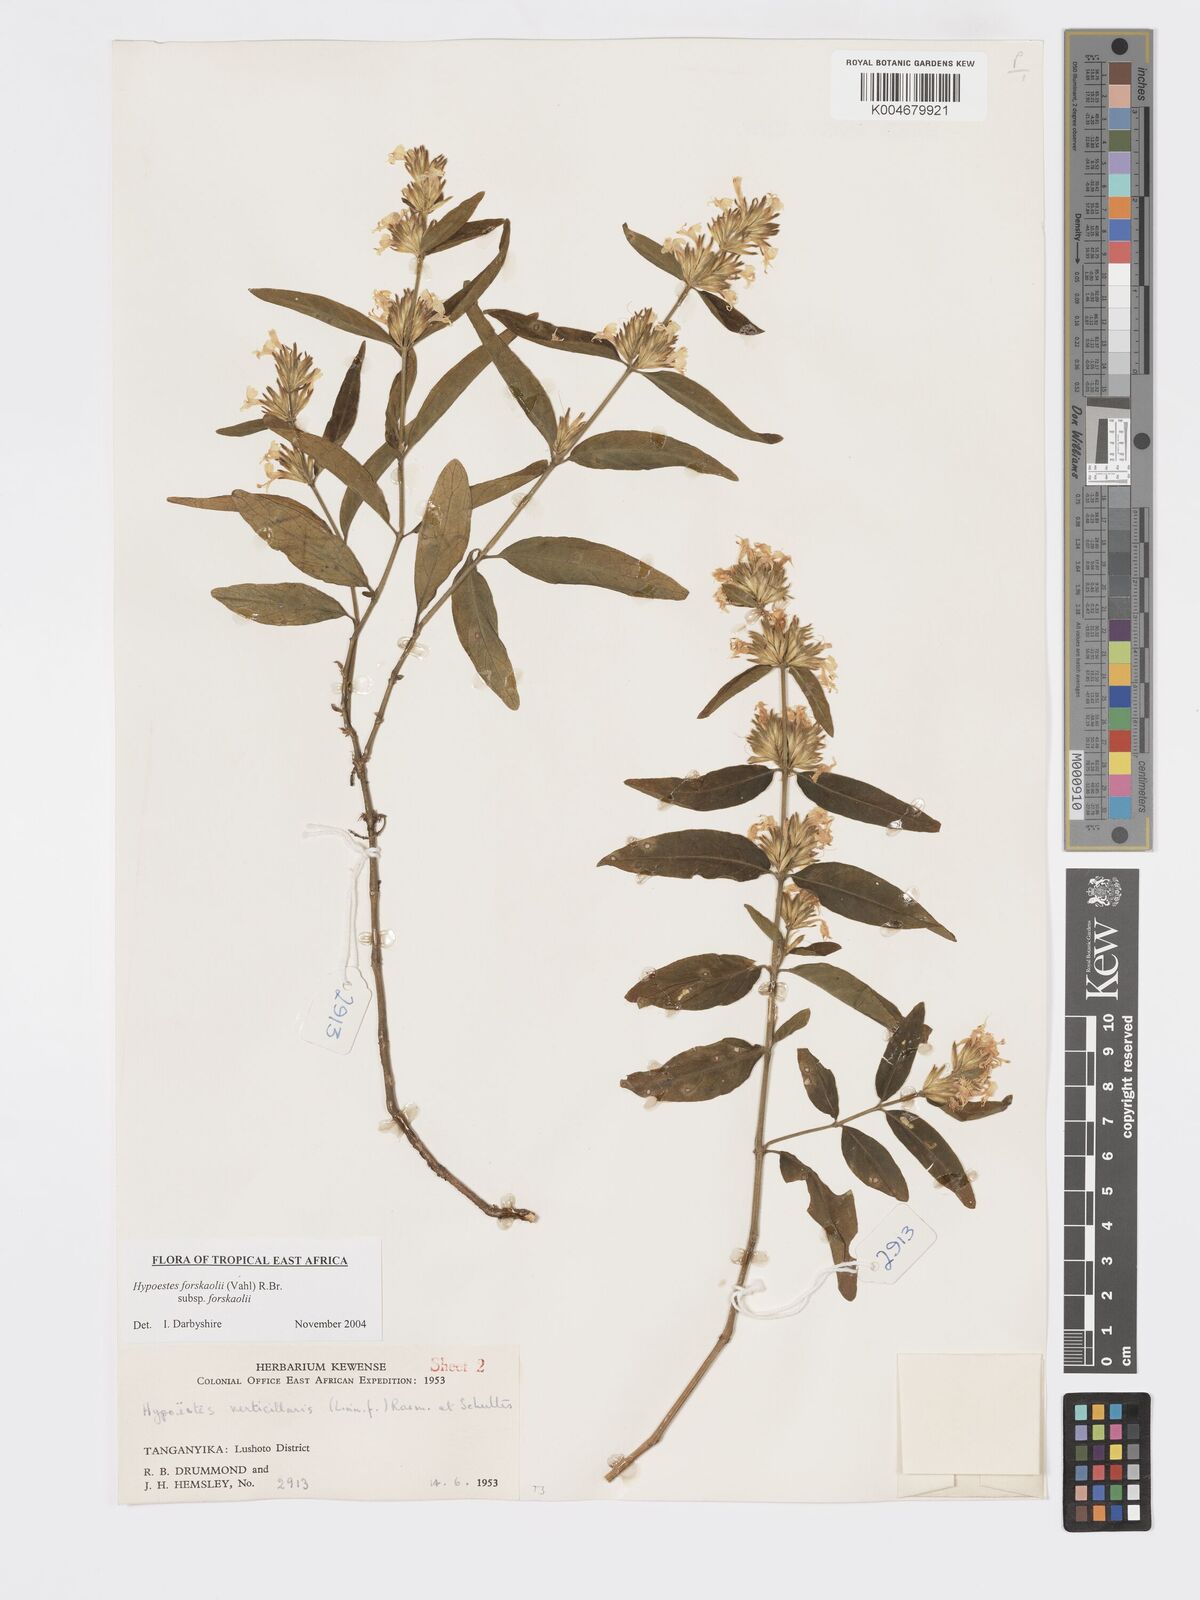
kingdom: Plantae
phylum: Tracheophyta
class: Magnoliopsida
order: Lamiales
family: Acanthaceae
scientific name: Acanthaceae
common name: Acanthaceae
